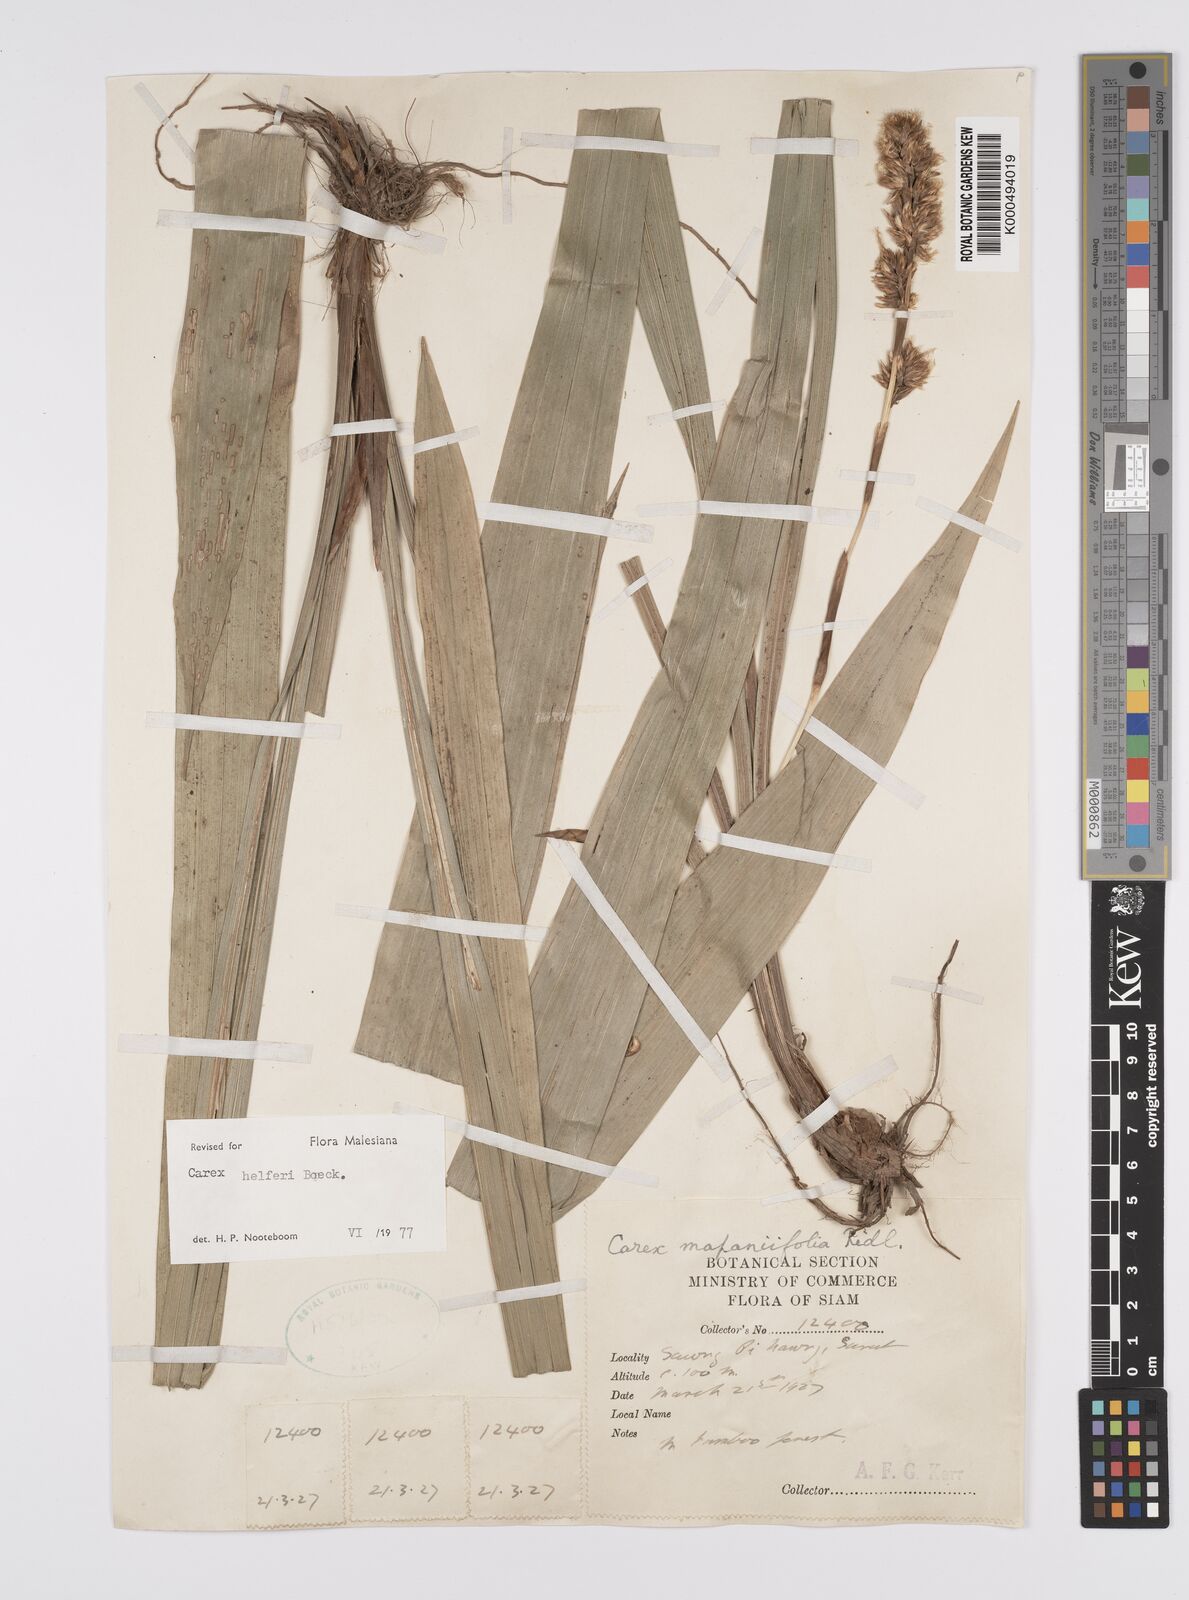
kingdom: Plantae
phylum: Tracheophyta
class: Liliopsida
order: Poales
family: Cyperaceae
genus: Carex
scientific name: Carex helferi
